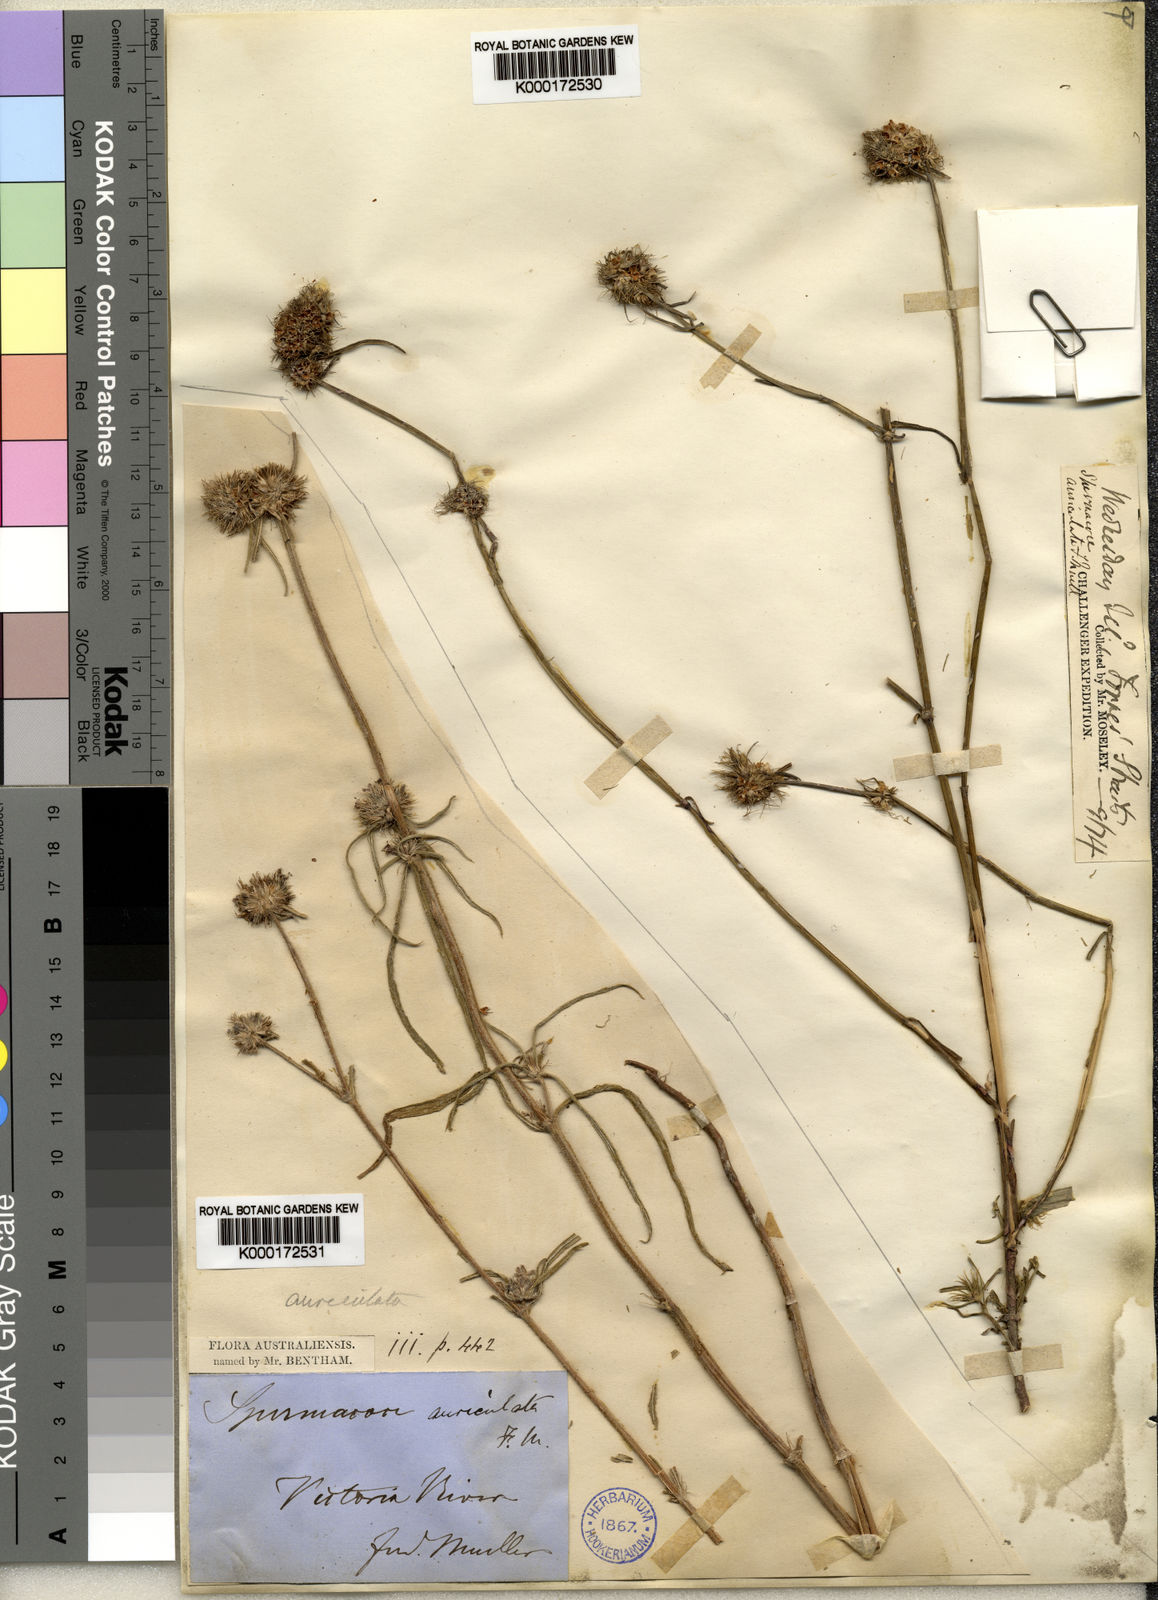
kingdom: Plantae
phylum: Tracheophyta
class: Magnoliopsida
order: Gentianales
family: Rubiaceae
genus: Spermacoce
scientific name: Spermacoce auriculata
